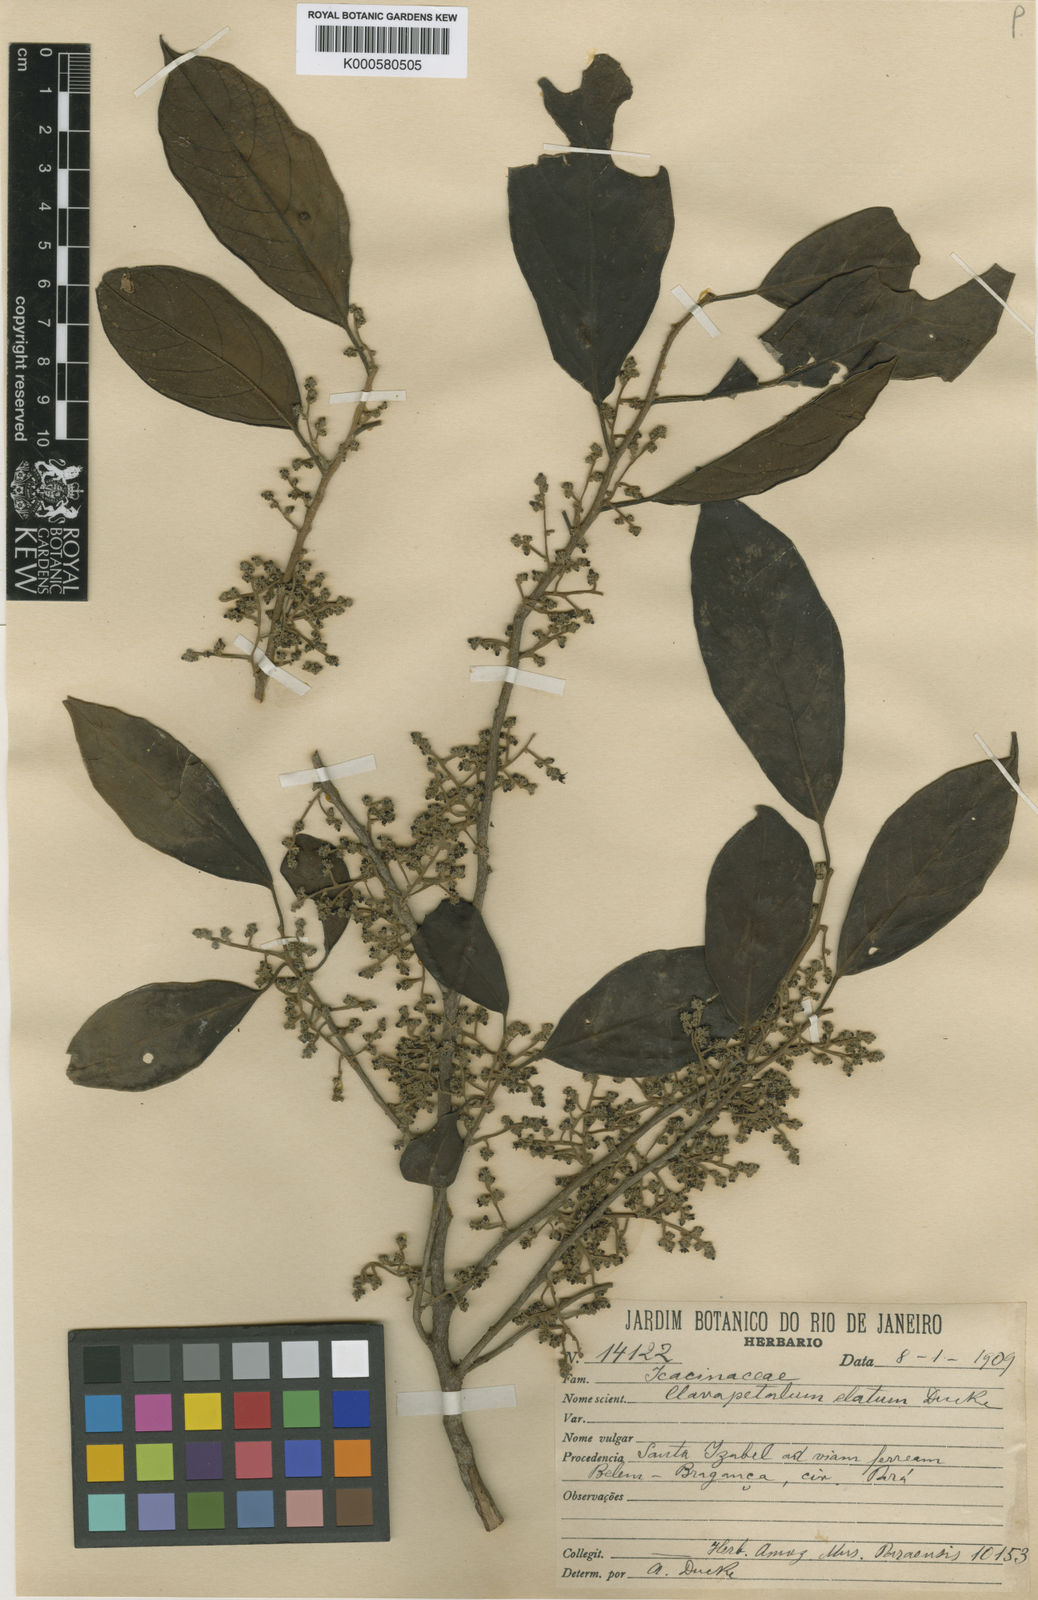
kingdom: Plantae
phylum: Tracheophyta
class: Magnoliopsida
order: Metteniusales
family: Metteniusaceae
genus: Dendrobangia
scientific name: Dendrobangia boliviana
